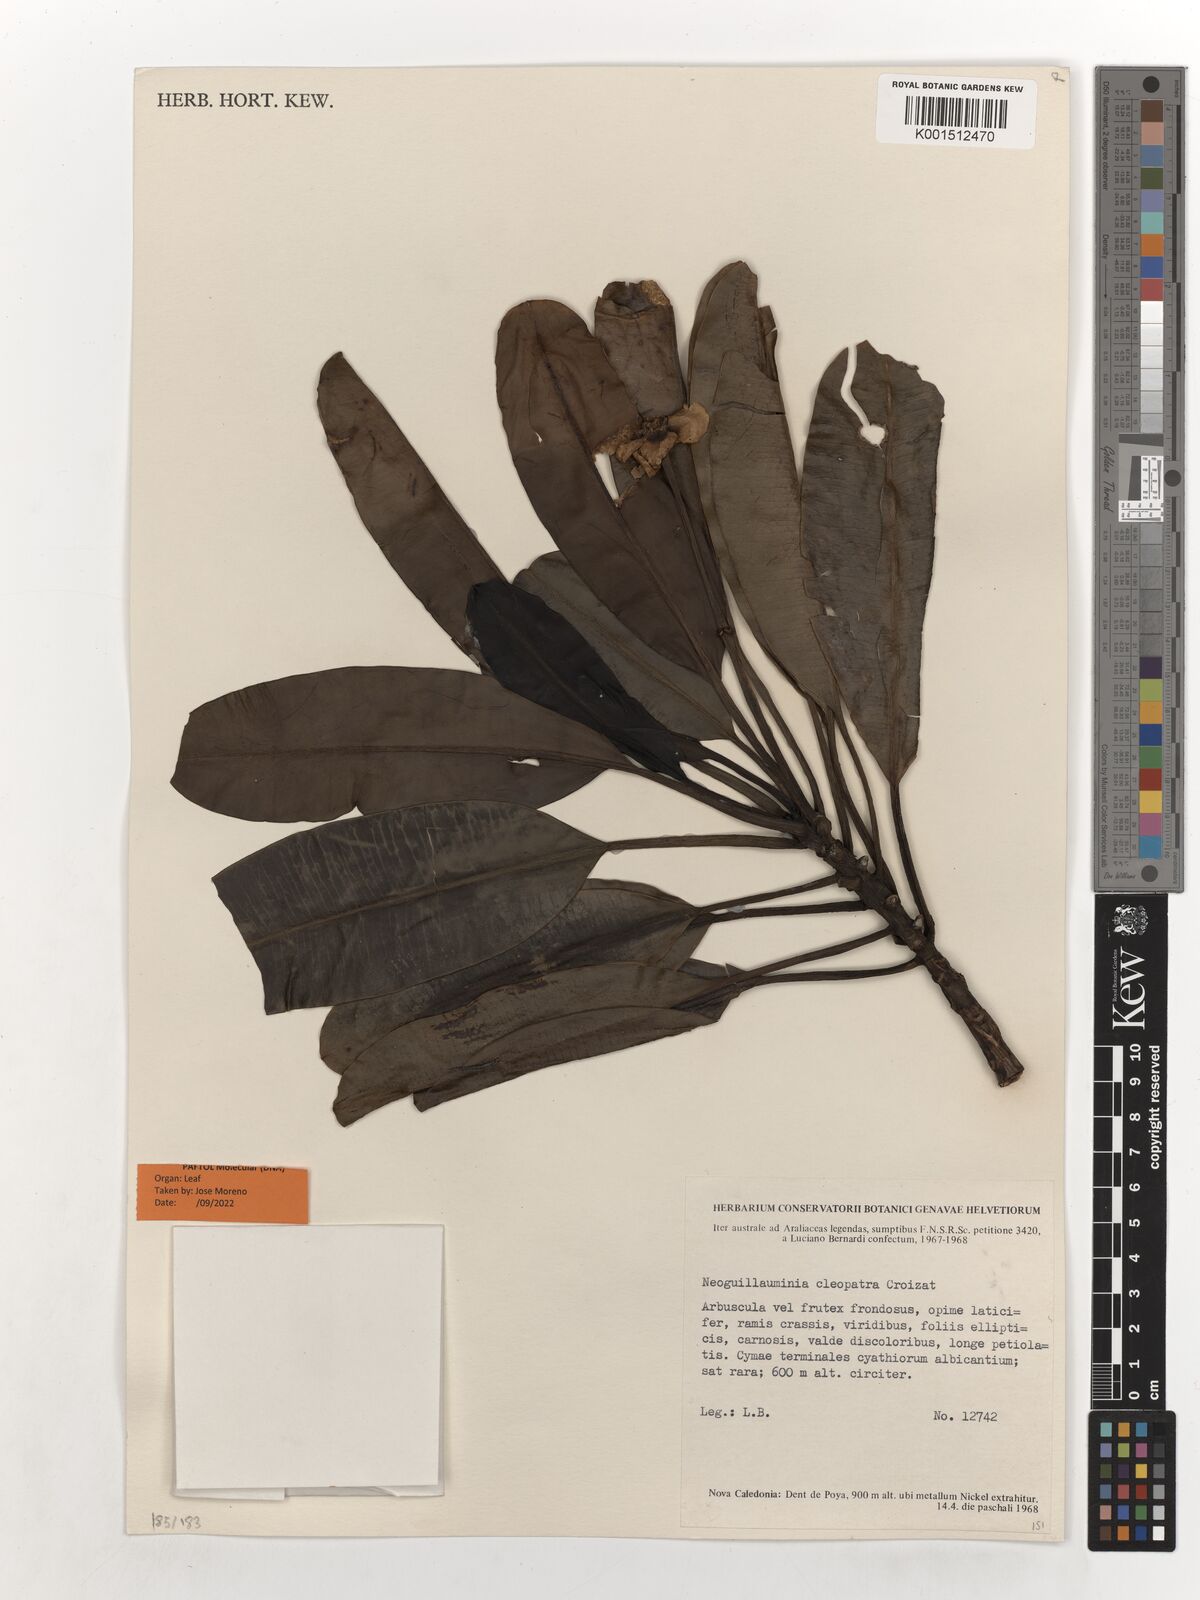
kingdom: Plantae
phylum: Tracheophyta
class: Magnoliopsida
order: Malpighiales
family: Euphorbiaceae
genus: Neoguillauminia
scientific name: Neoguillauminia cleopatra
